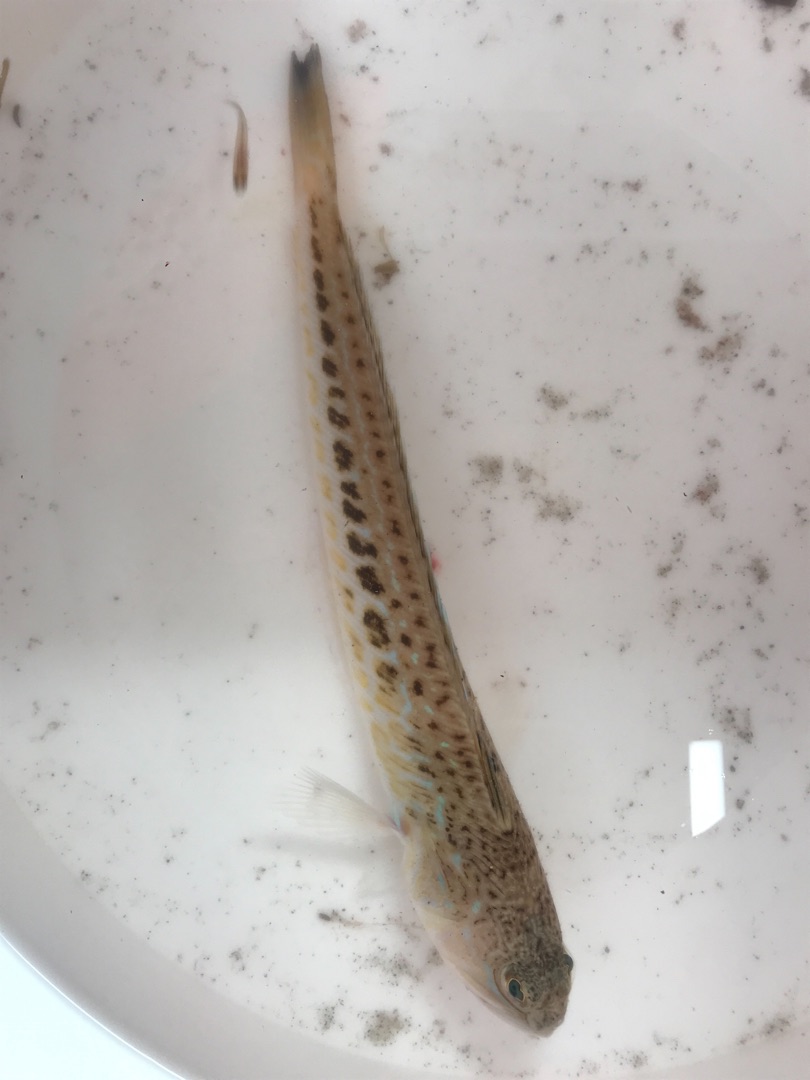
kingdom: Animalia
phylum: Chordata
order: Perciformes
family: Trachinidae
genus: Trachinus
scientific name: Trachinus draco
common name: Almindelig fjæsing
